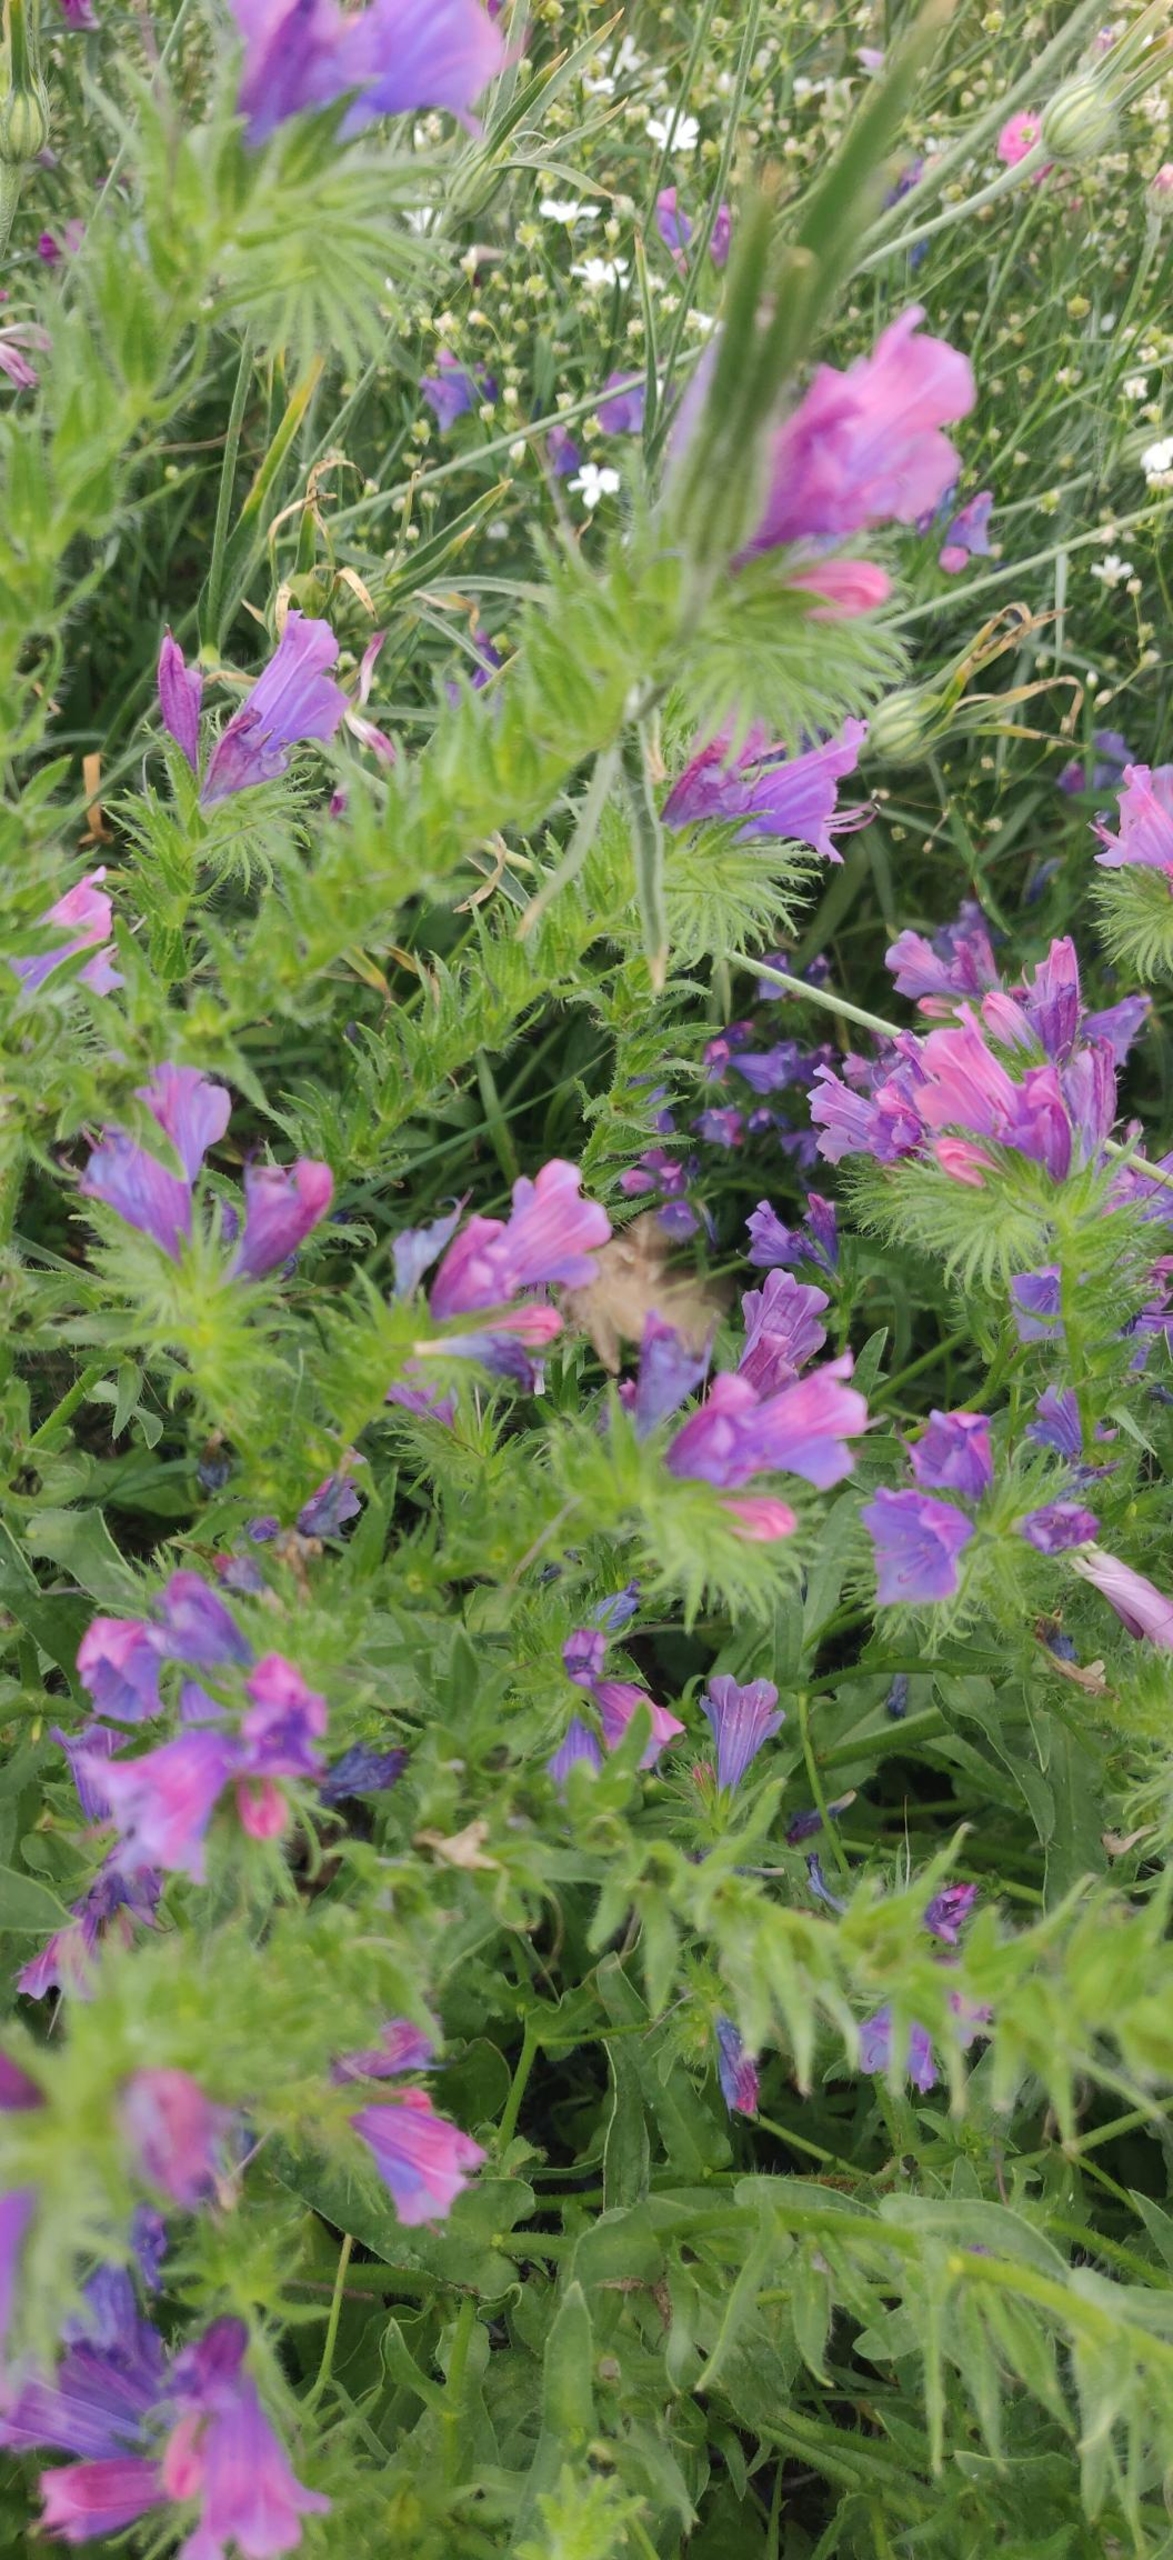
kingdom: Plantae
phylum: Tracheophyta
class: Magnoliopsida
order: Boraginales
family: Boraginaceae
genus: Echium
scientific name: Echium plantagineum
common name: Vejbred-slangehoved
